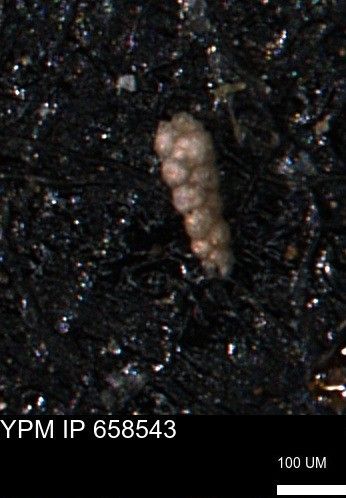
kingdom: Chromista
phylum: Foraminifera
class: Globothalamea
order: Lituolida
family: Verneuilinidae
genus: Verneuilinoides
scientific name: Verneuilinoides kansasensis
